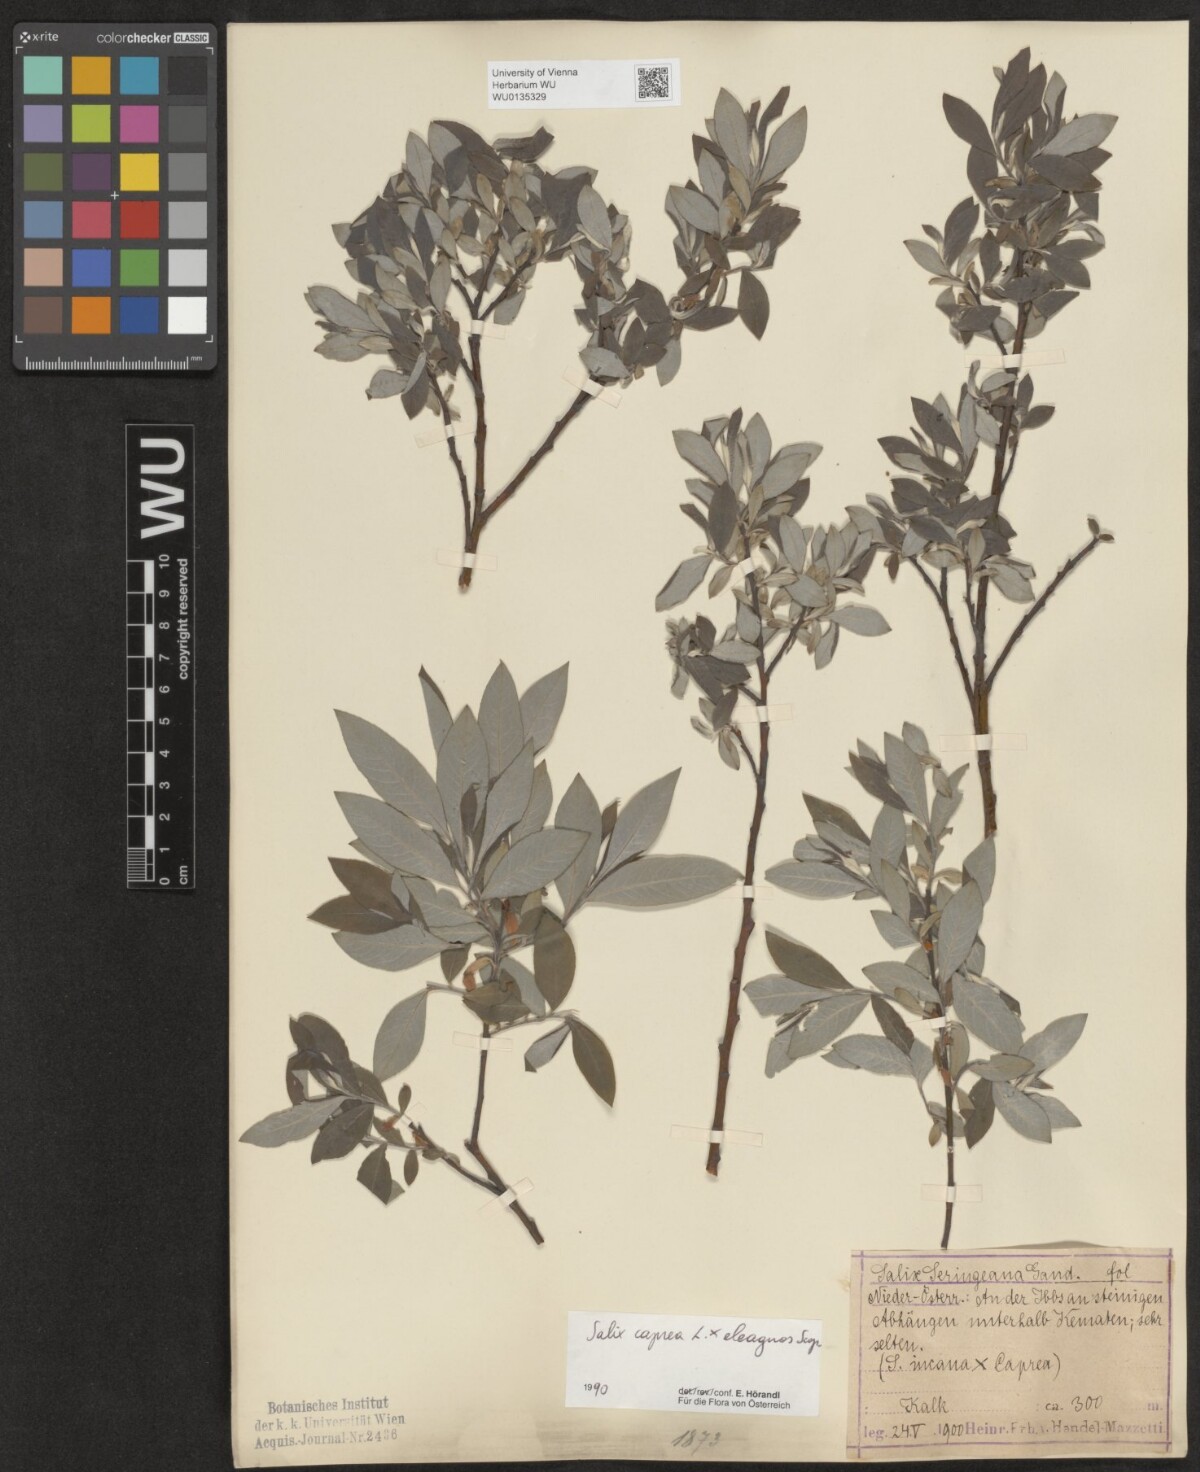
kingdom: Plantae
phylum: Tracheophyta
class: Magnoliopsida
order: Malpighiales
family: Salicaceae
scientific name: Salicaceae
